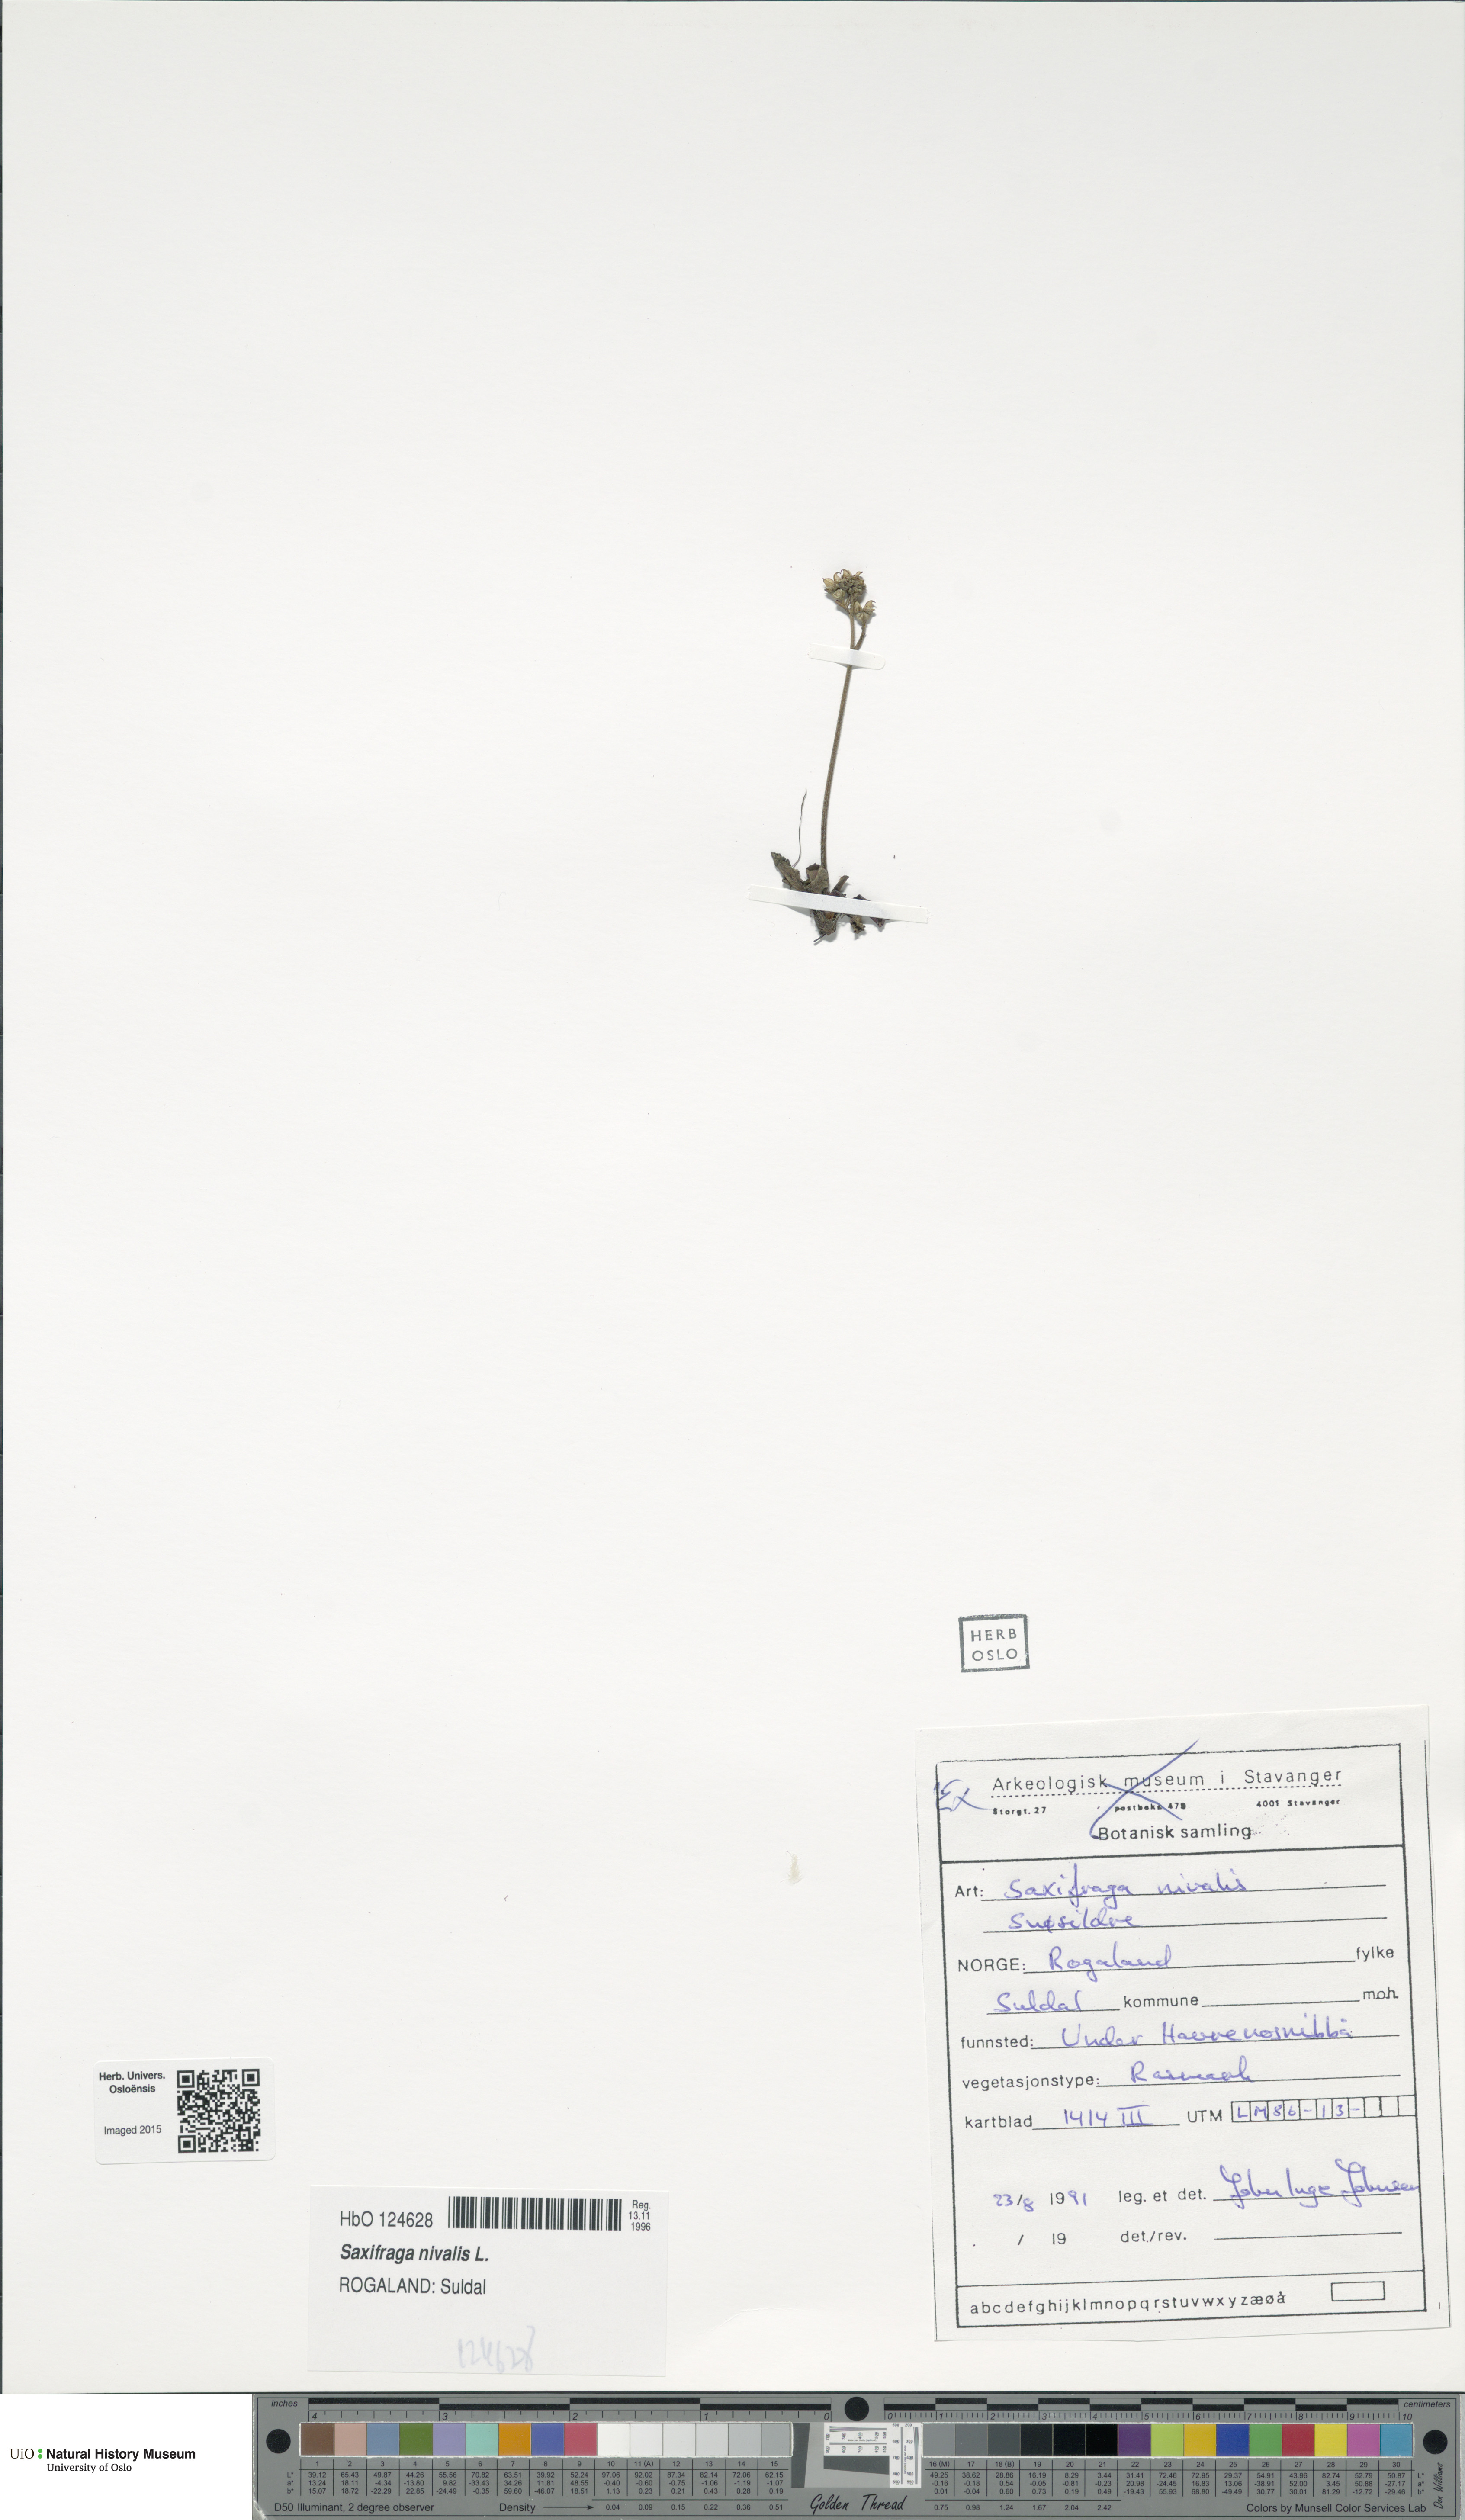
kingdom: Plantae
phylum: Tracheophyta
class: Magnoliopsida
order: Saxifragales
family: Saxifragaceae
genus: Micranthes
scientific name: Micranthes nivalis
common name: Alpine saxifrage
